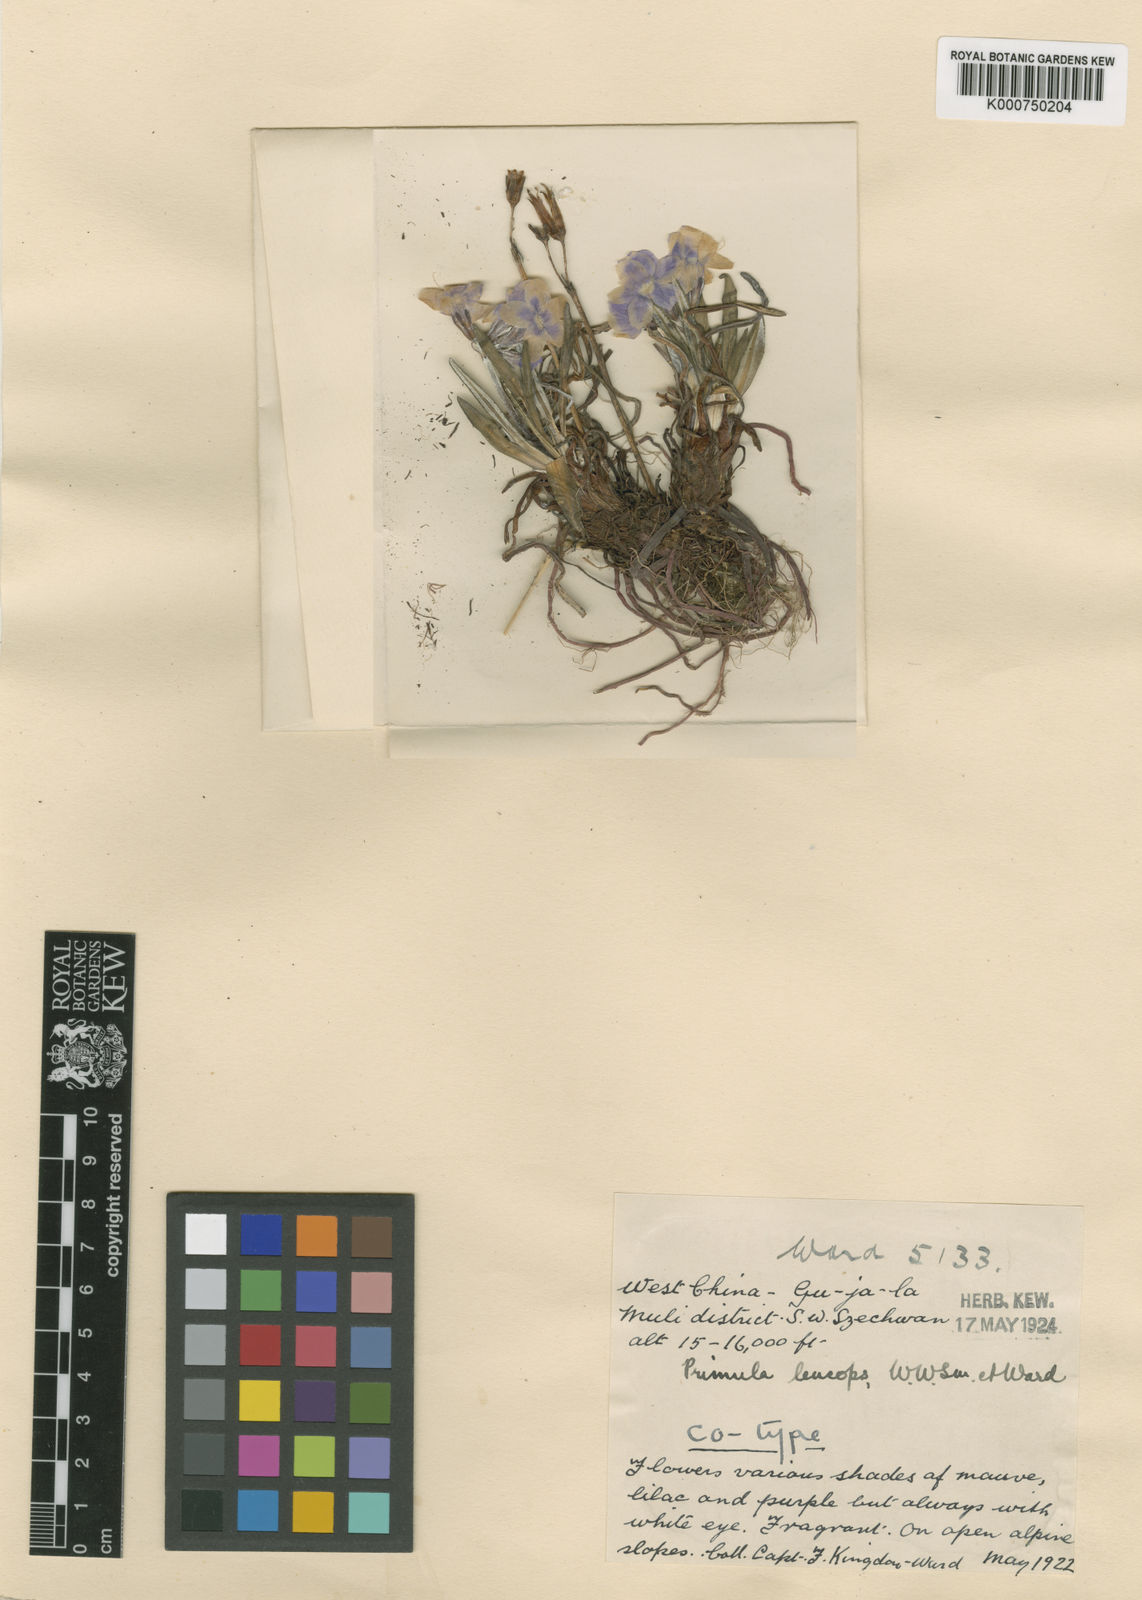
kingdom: Plantae
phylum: Tracheophyta
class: Magnoliopsida
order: Ericales
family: Primulaceae
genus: Primula
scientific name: Primula diantha
